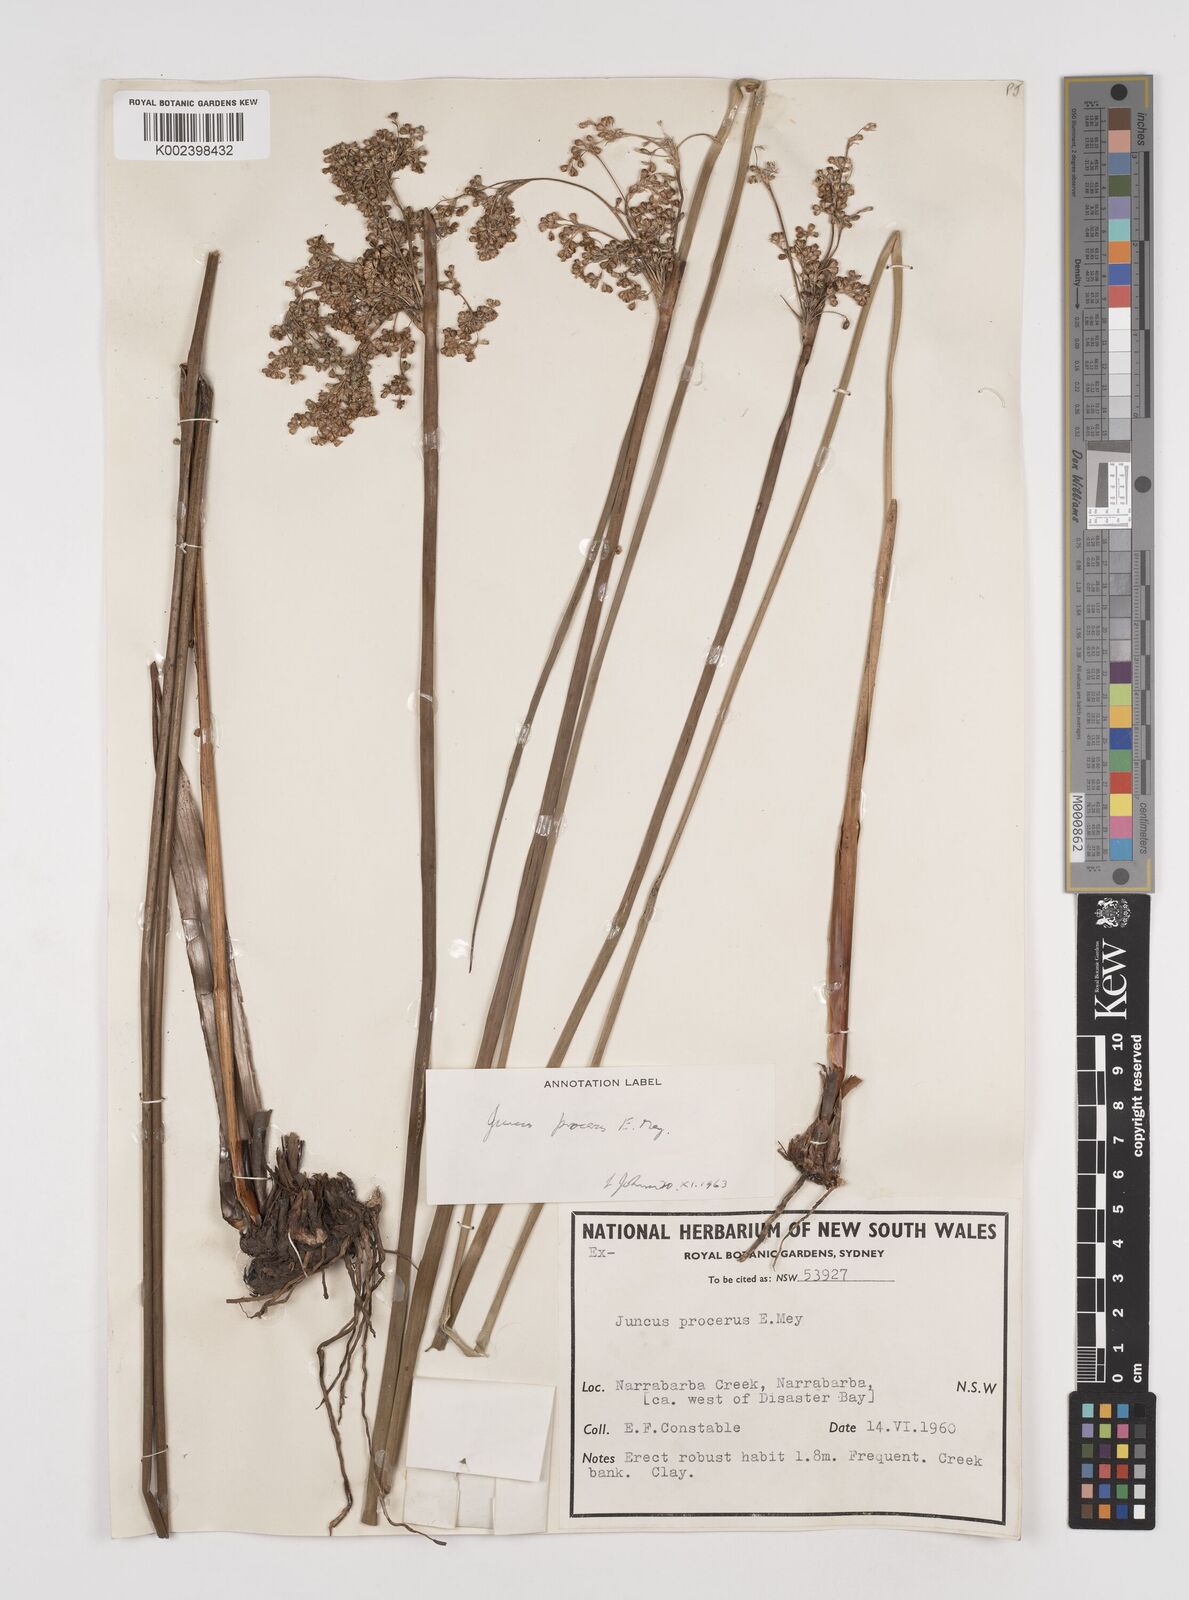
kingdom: Plantae
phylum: Tracheophyta
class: Liliopsida
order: Poales
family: Juncaceae
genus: Juncus
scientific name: Juncus procerus
